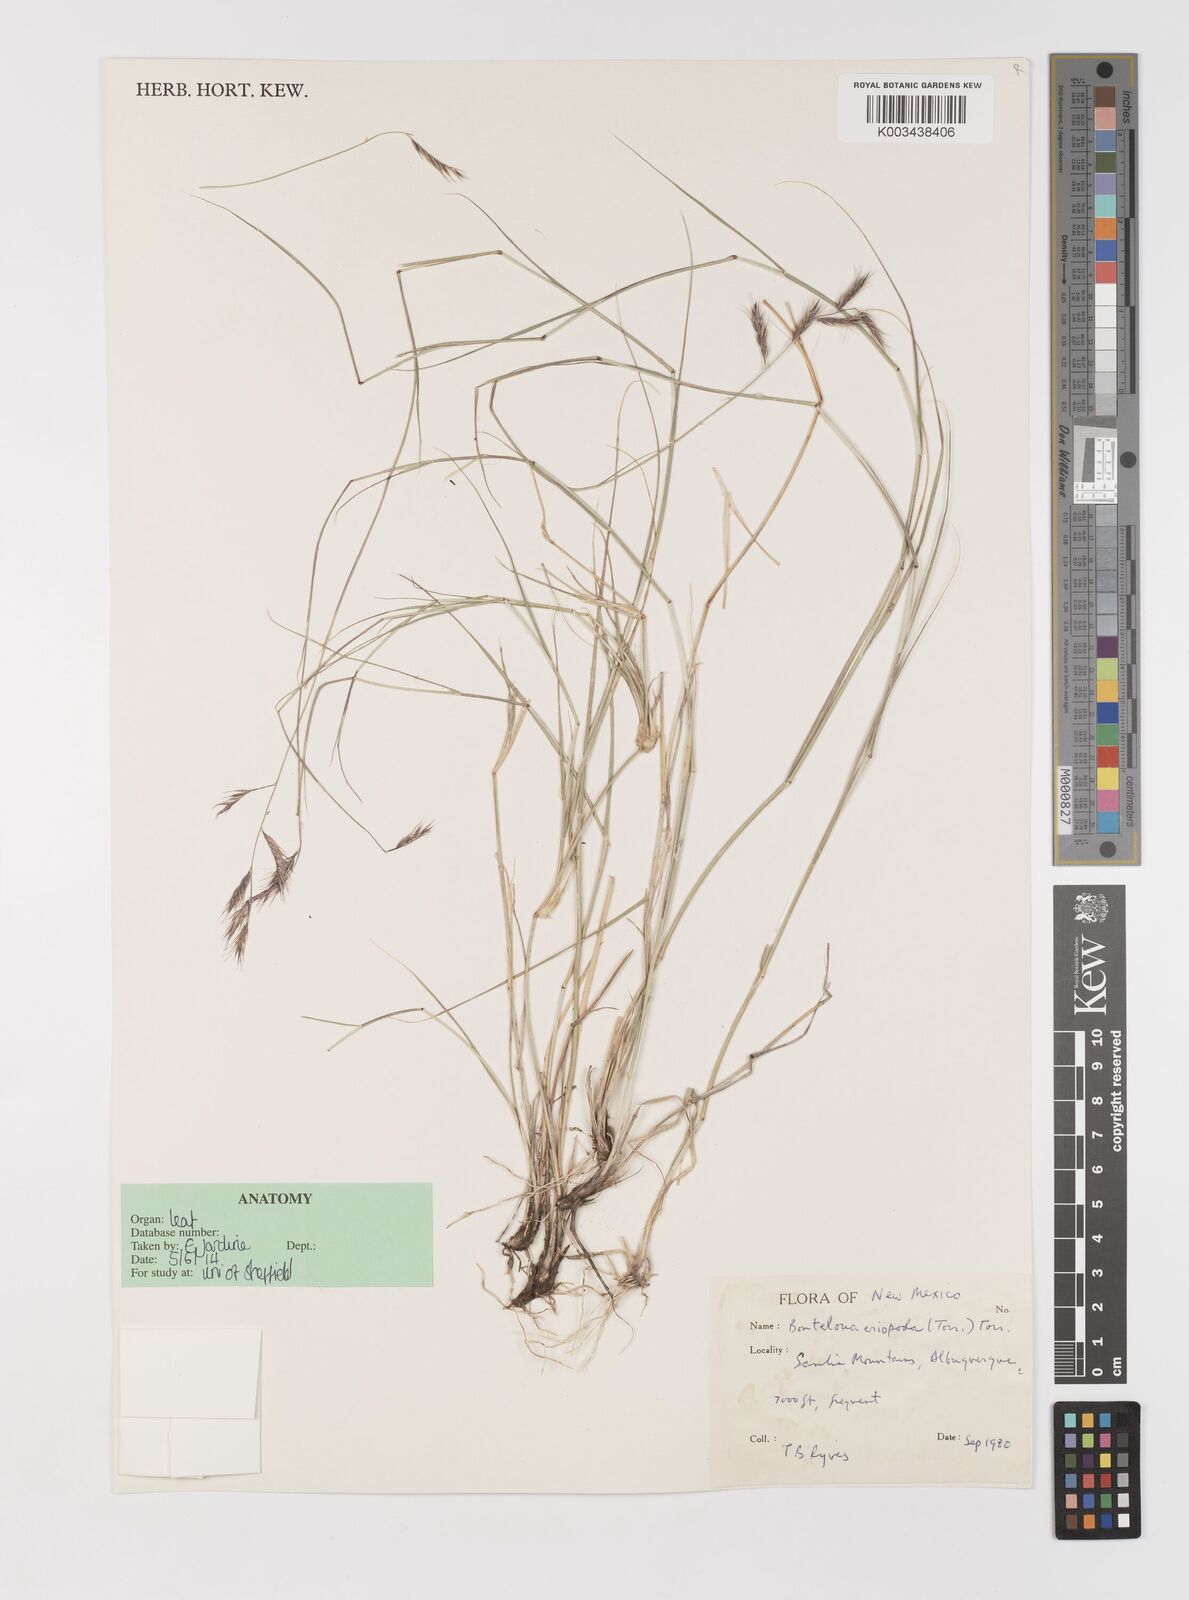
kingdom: Plantae
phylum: Tracheophyta
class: Liliopsida
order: Poales
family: Poaceae
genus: Bouteloua
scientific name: Bouteloua eriopoda
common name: Woolly foot grama
